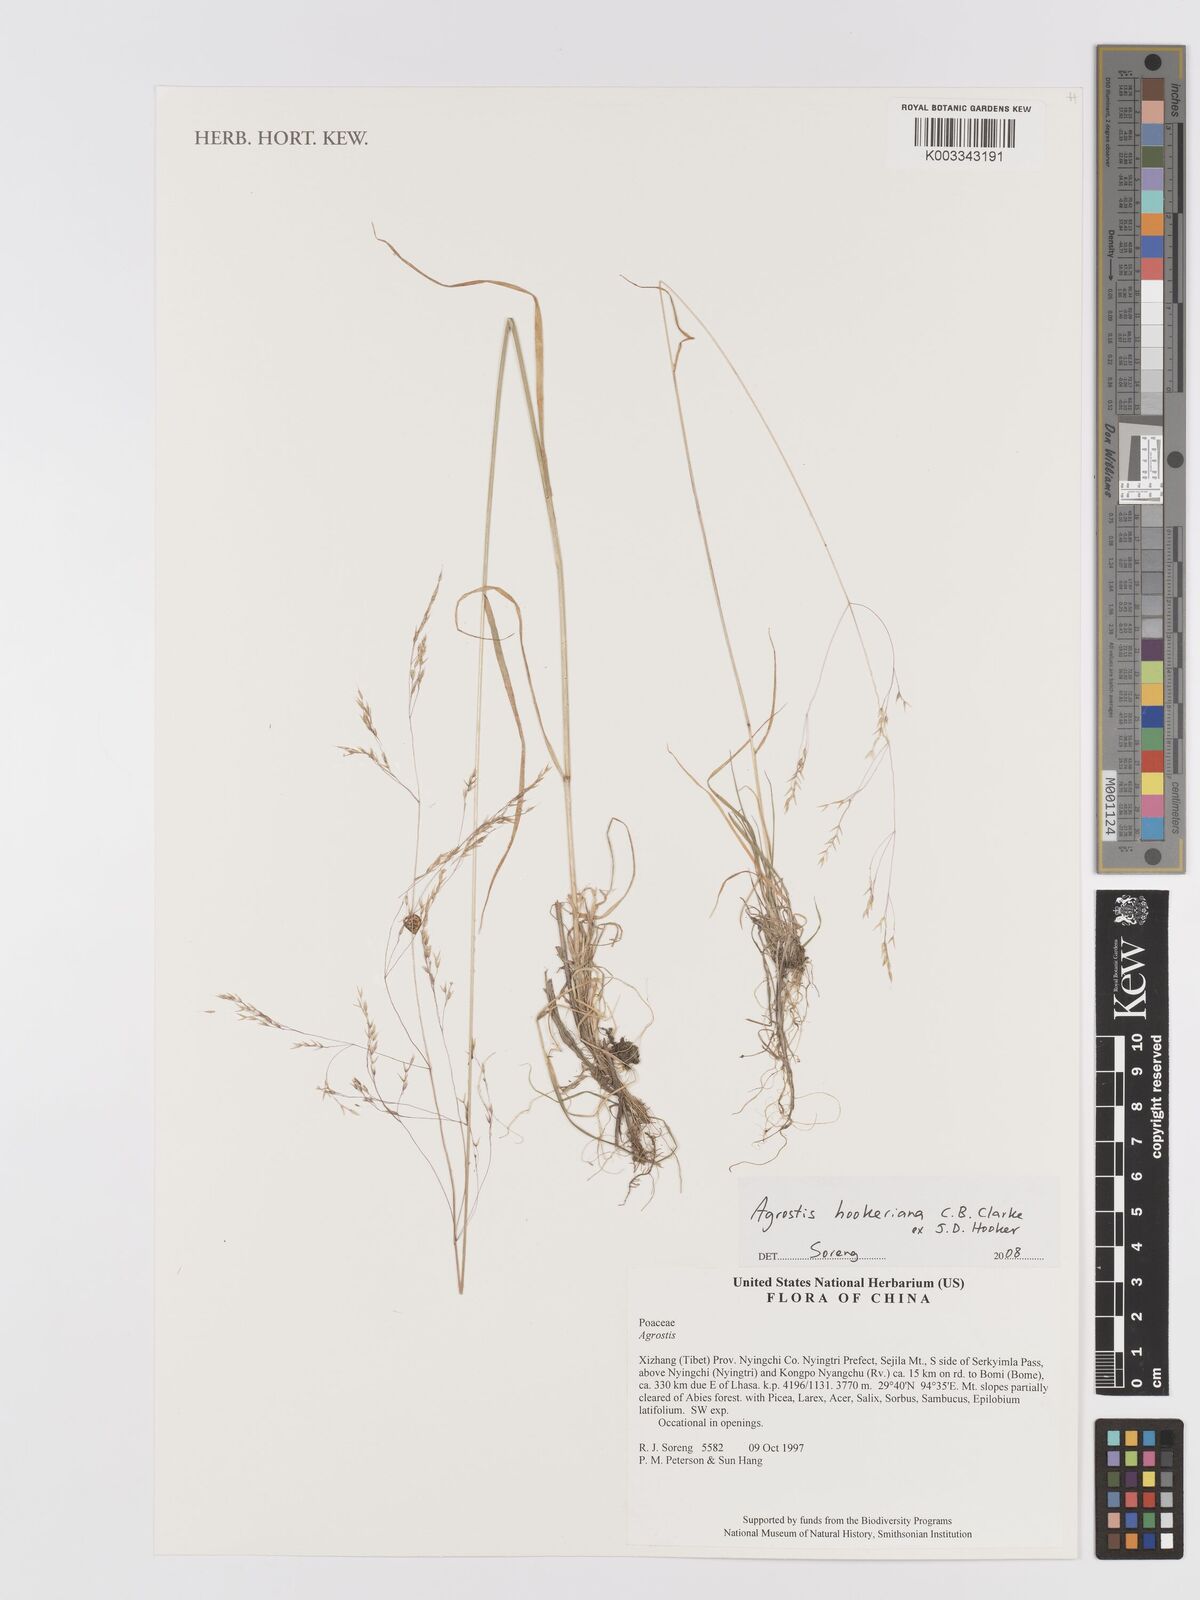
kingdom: Plantae
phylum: Tracheophyta
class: Liliopsida
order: Poales
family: Poaceae
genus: Agrostis
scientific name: Agrostis hookeriana
